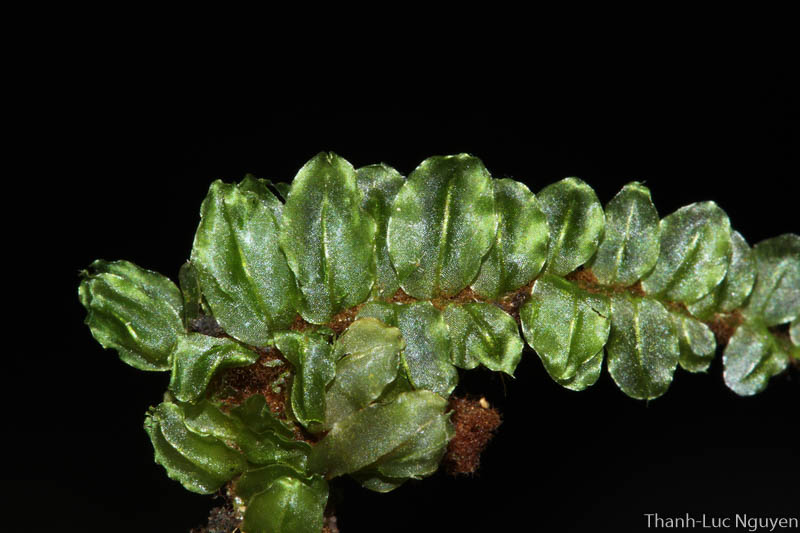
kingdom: Plantae
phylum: Bryophyta
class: Bryopsida
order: Bryales
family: Mniaceae
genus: Orthomnion
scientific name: Orthomnion
